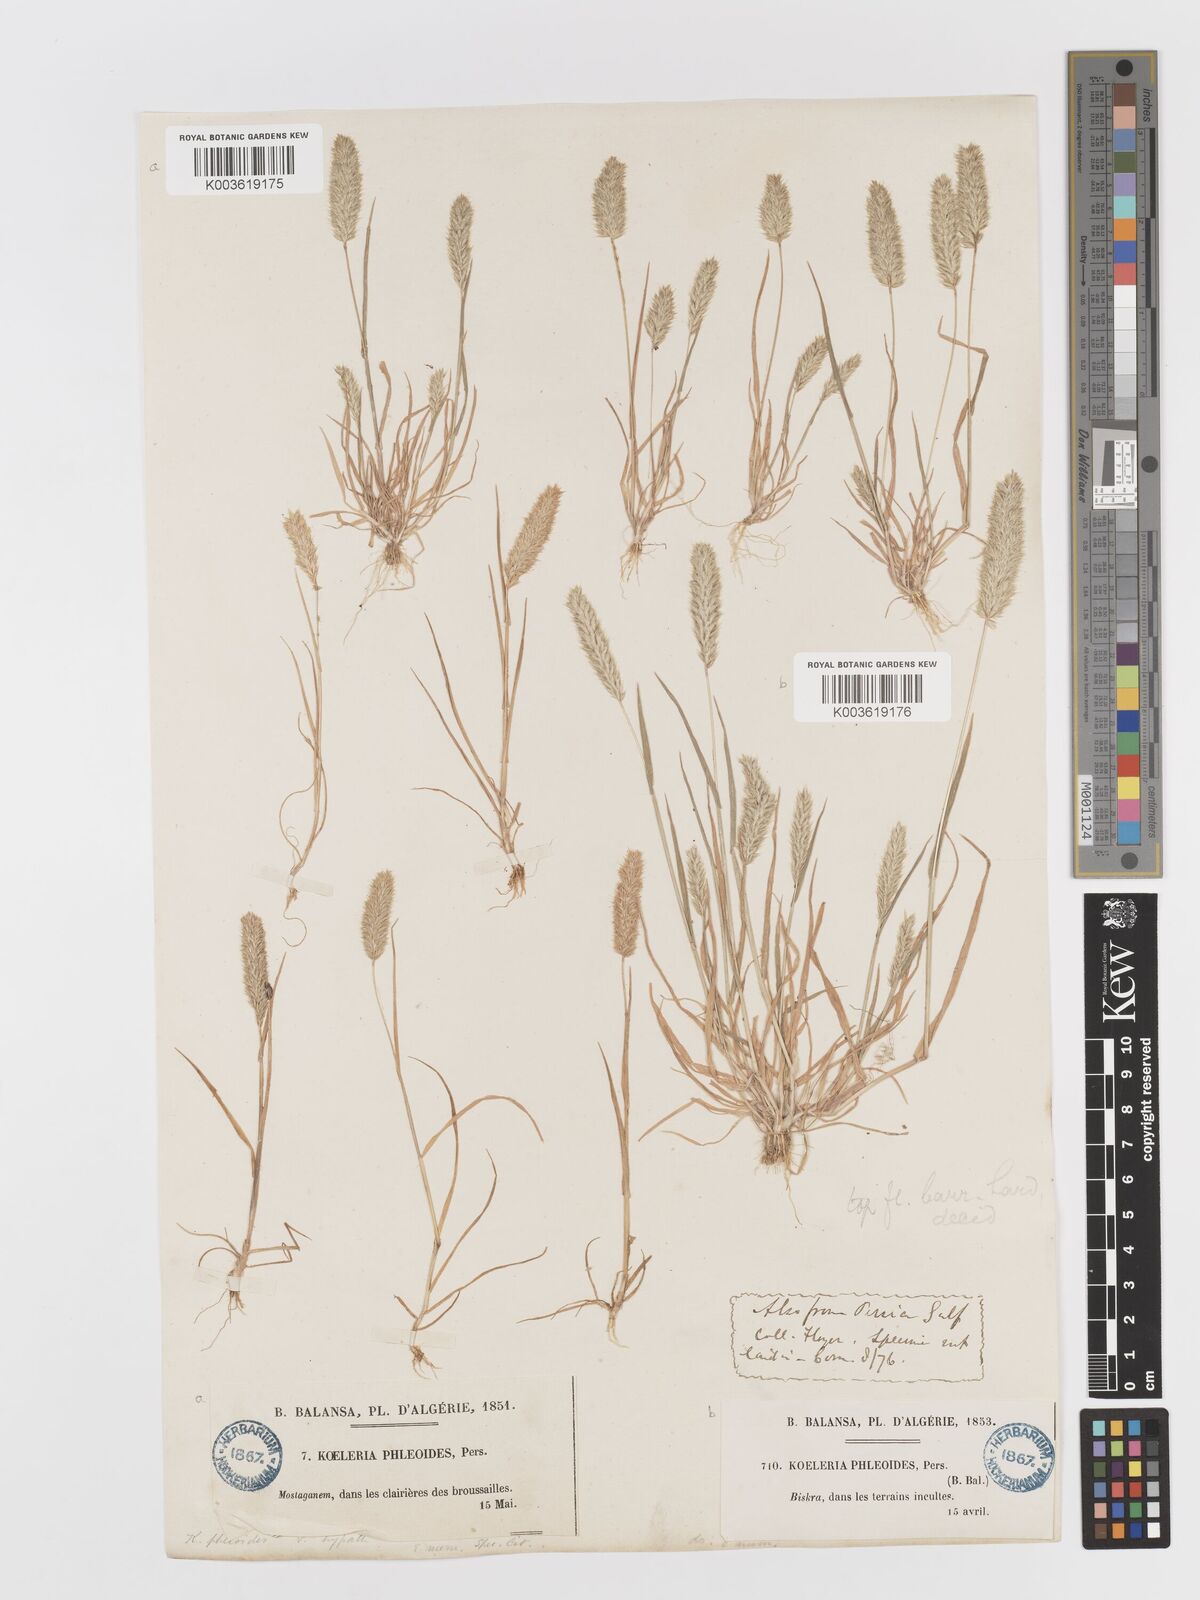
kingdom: Plantae
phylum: Tracheophyta
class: Liliopsida
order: Poales
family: Poaceae
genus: Rostraria
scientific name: Rostraria cristata
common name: Mediterranean hair-grass
